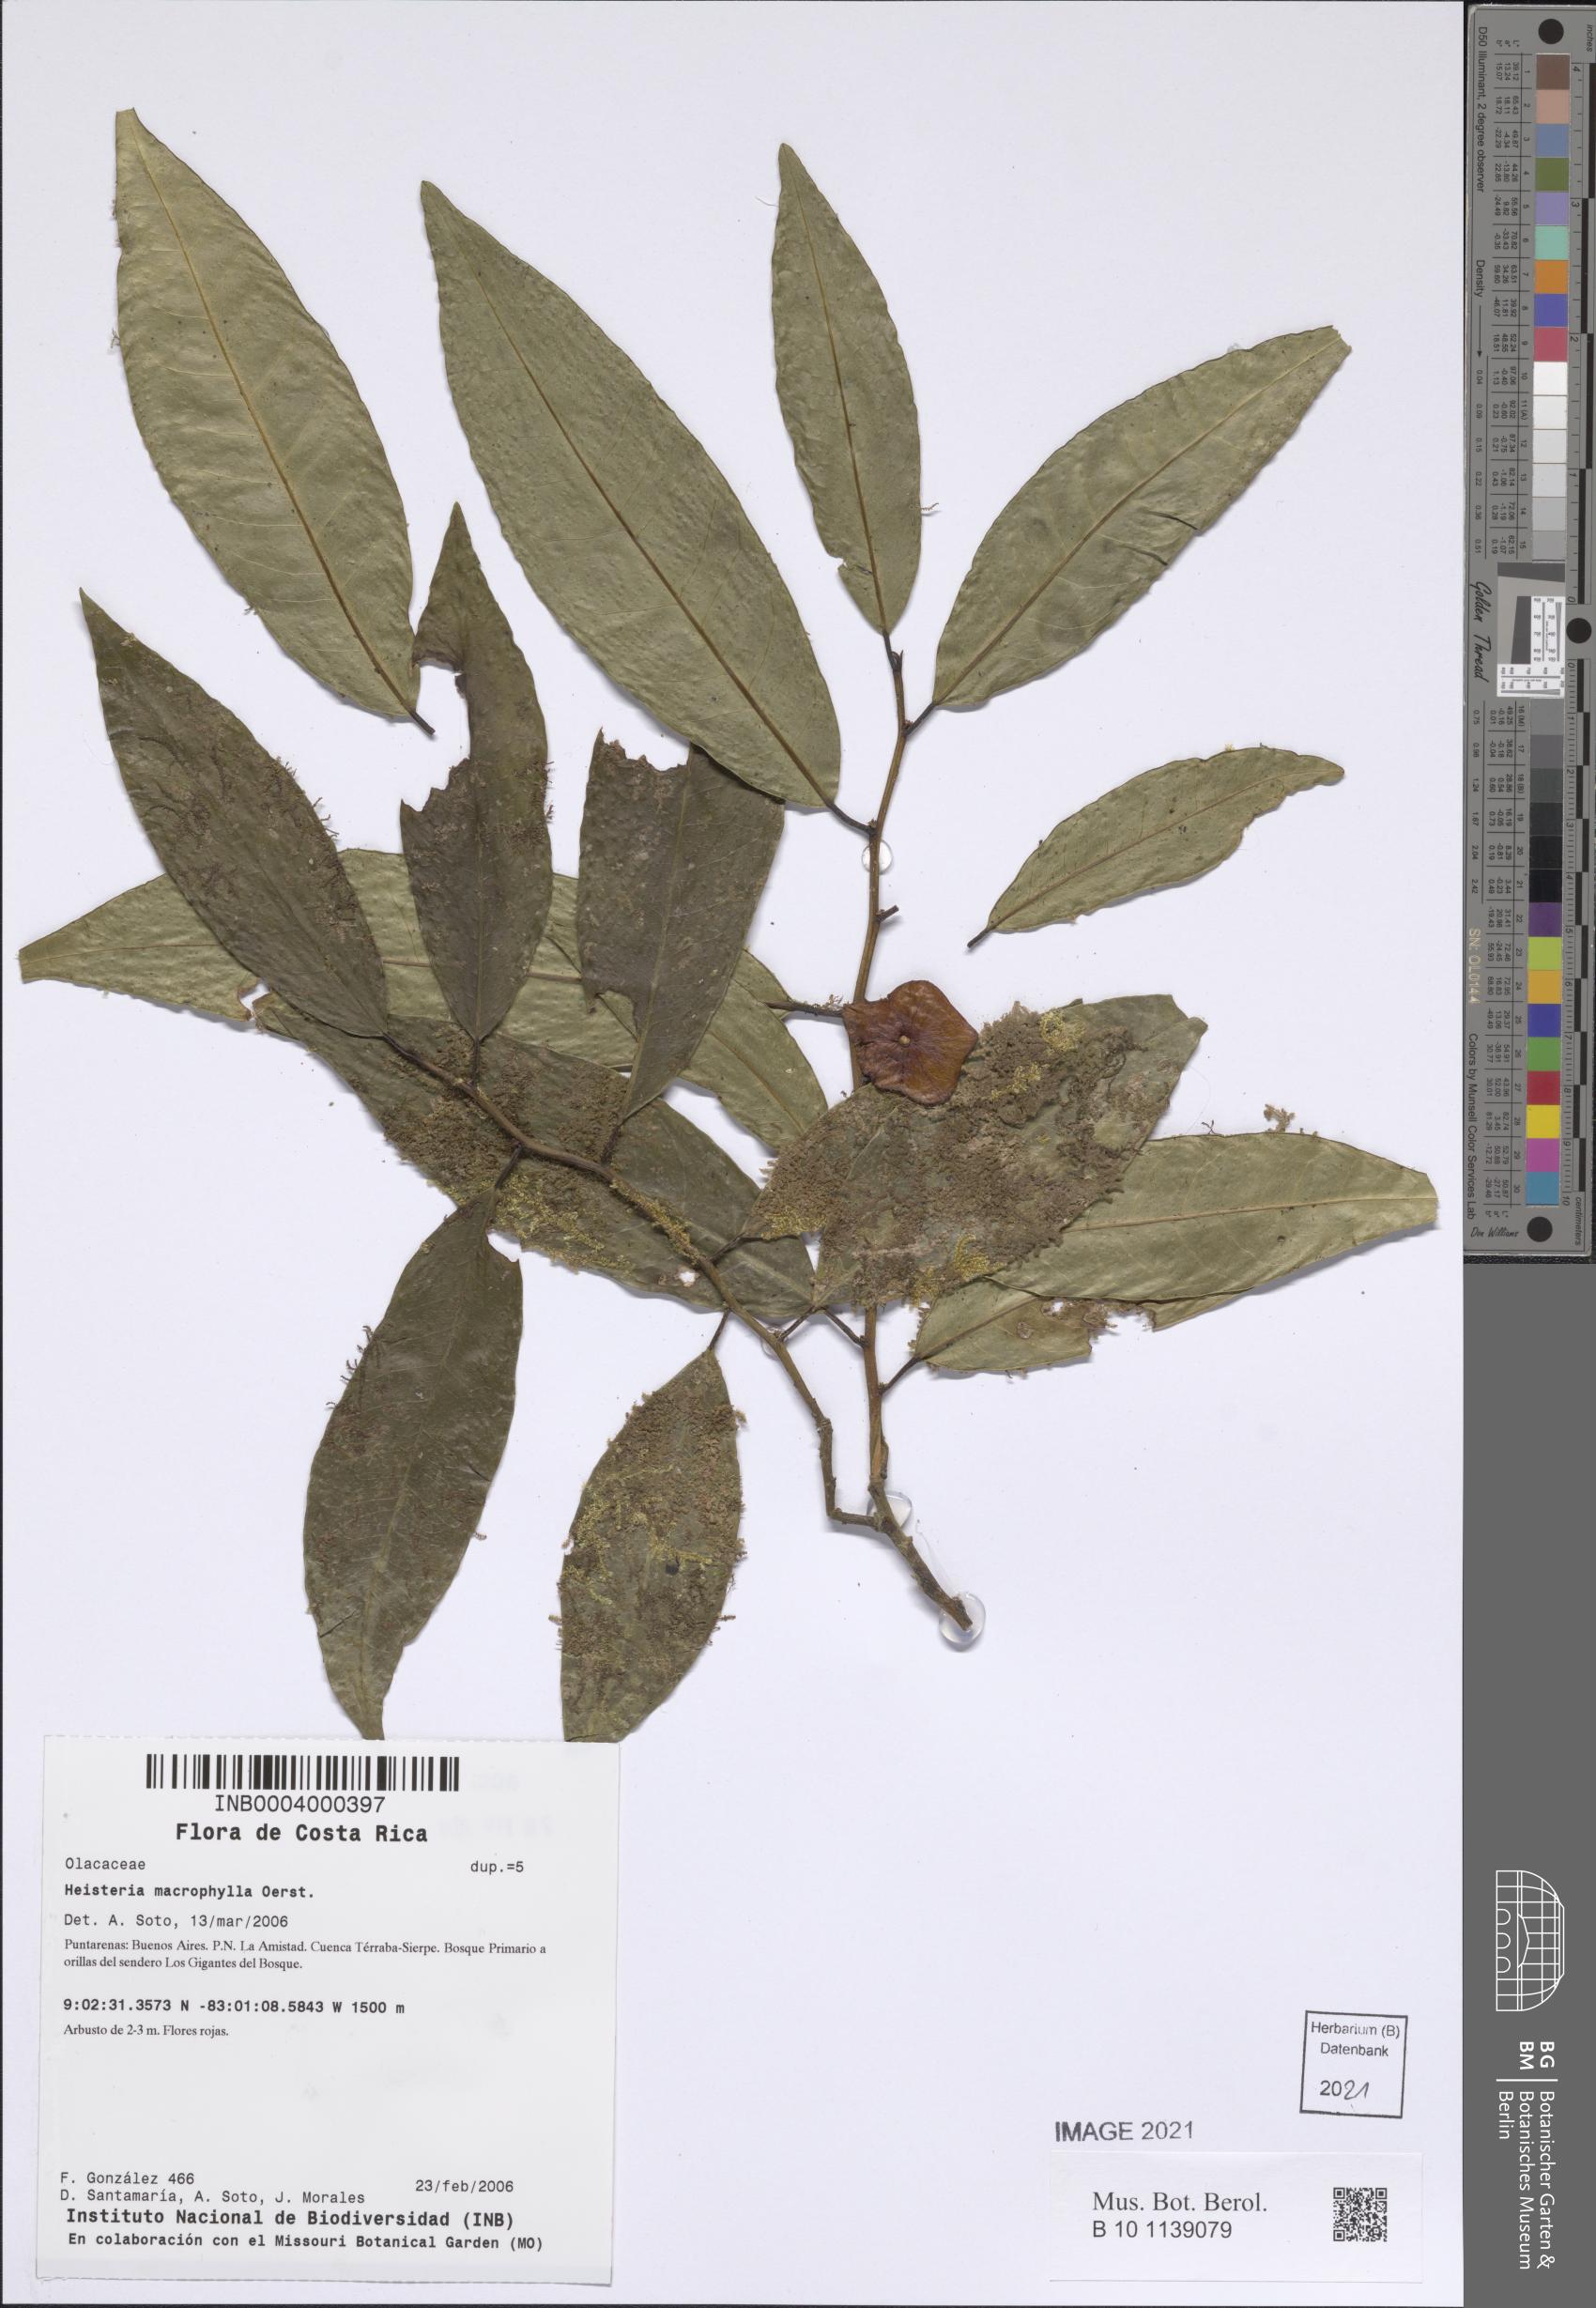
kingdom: Plantae
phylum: Tracheophyta
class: Magnoliopsida
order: Santalales
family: Erythropalaceae
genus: Heisteria
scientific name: Heisteria macrophylla
